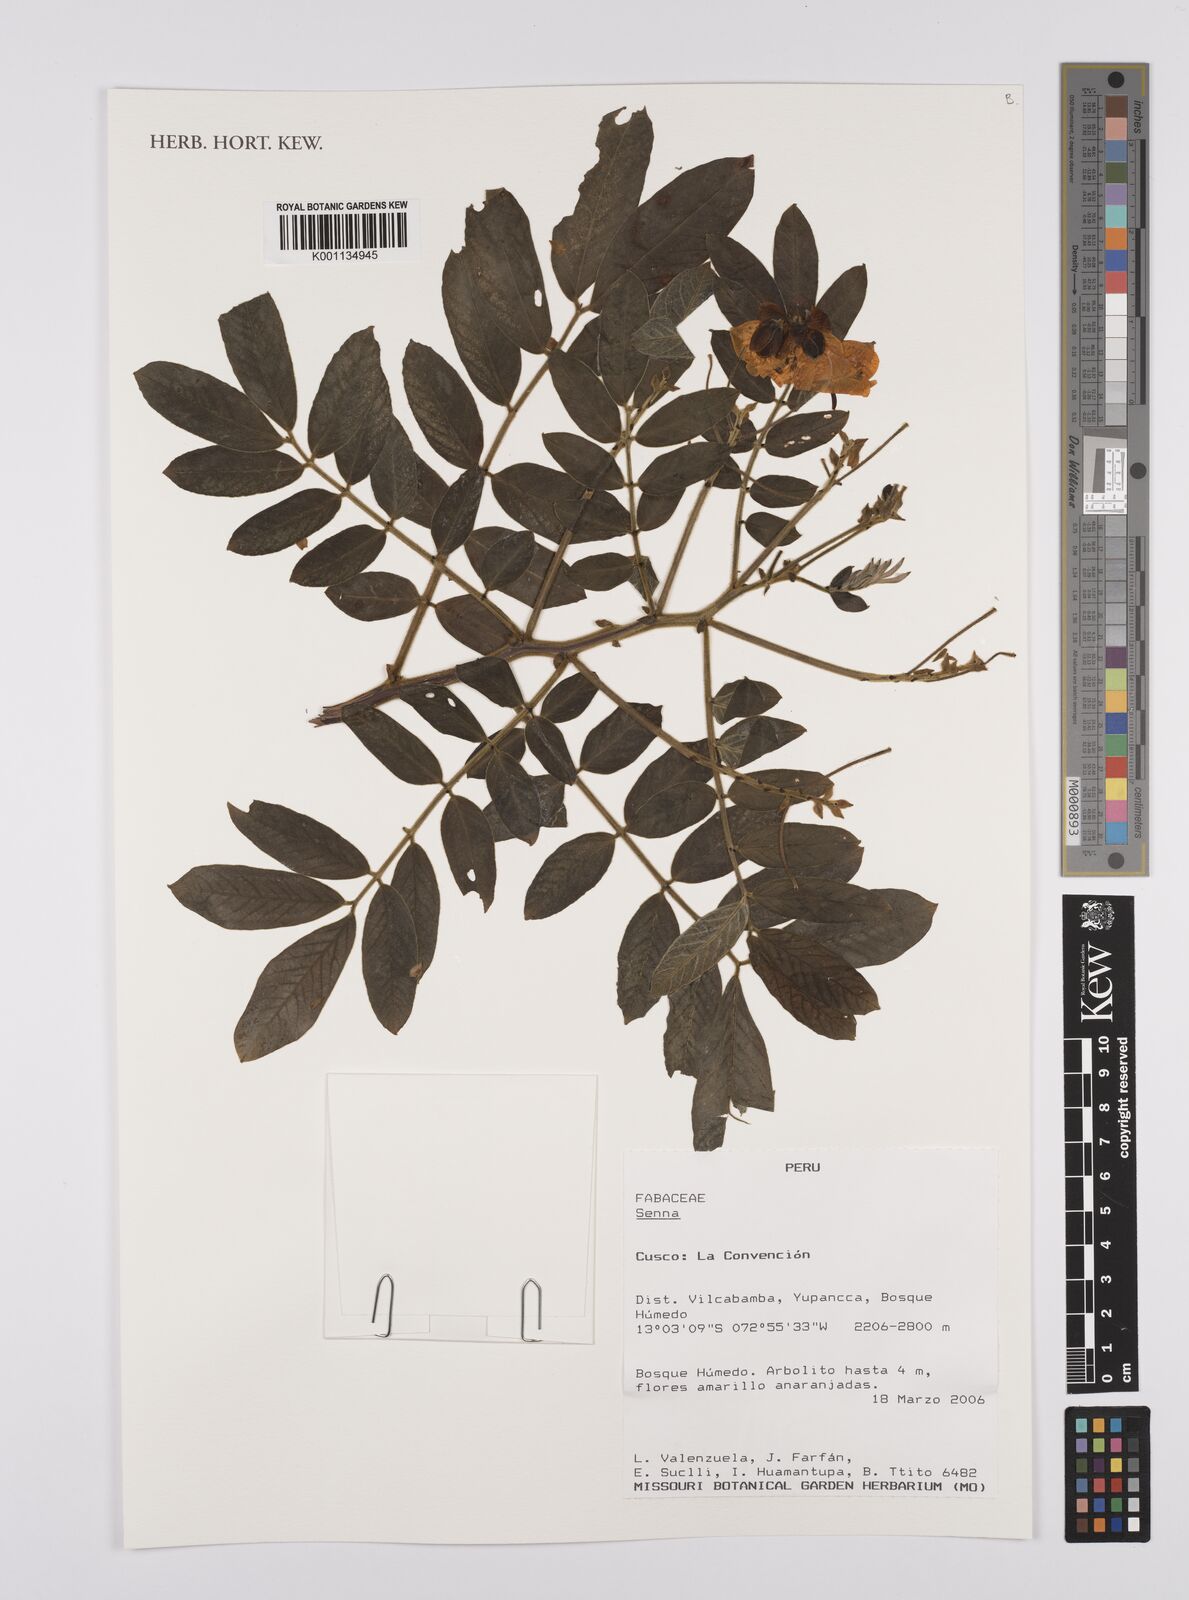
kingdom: Plantae
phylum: Tracheophyta
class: Magnoliopsida
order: Fabales
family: Fabaceae
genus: Senna
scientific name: Senna
